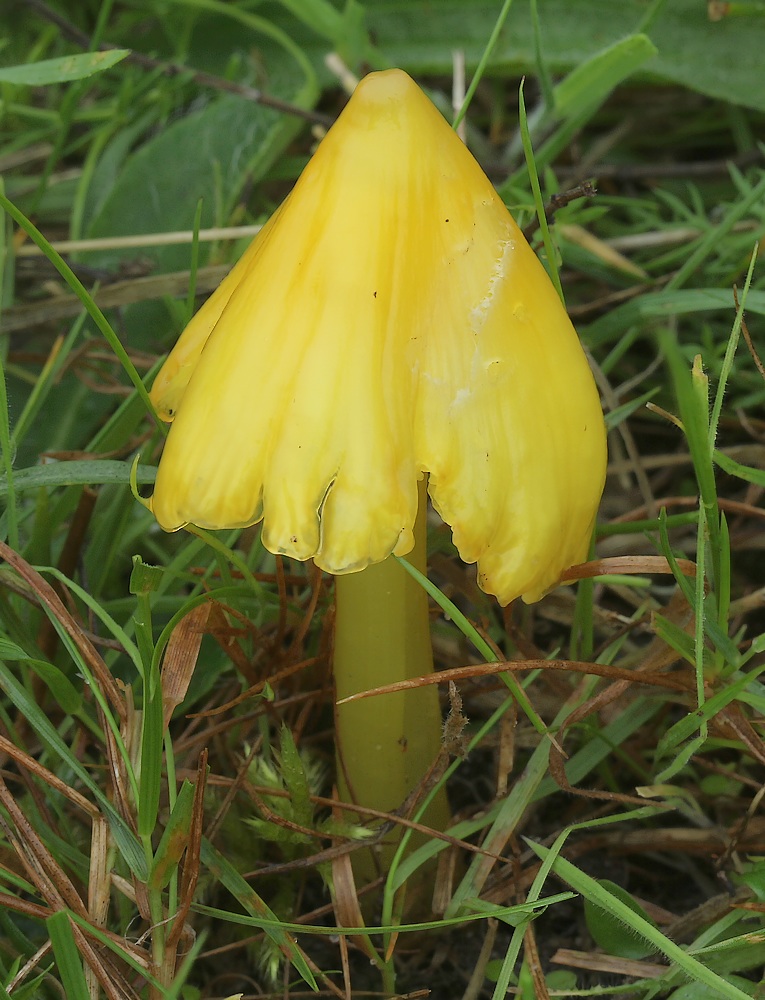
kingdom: Fungi
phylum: Basidiomycota
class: Agaricomycetes
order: Agaricales
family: Hygrophoraceae
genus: Hygrocybe
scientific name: Hygrocybe acutoconica
